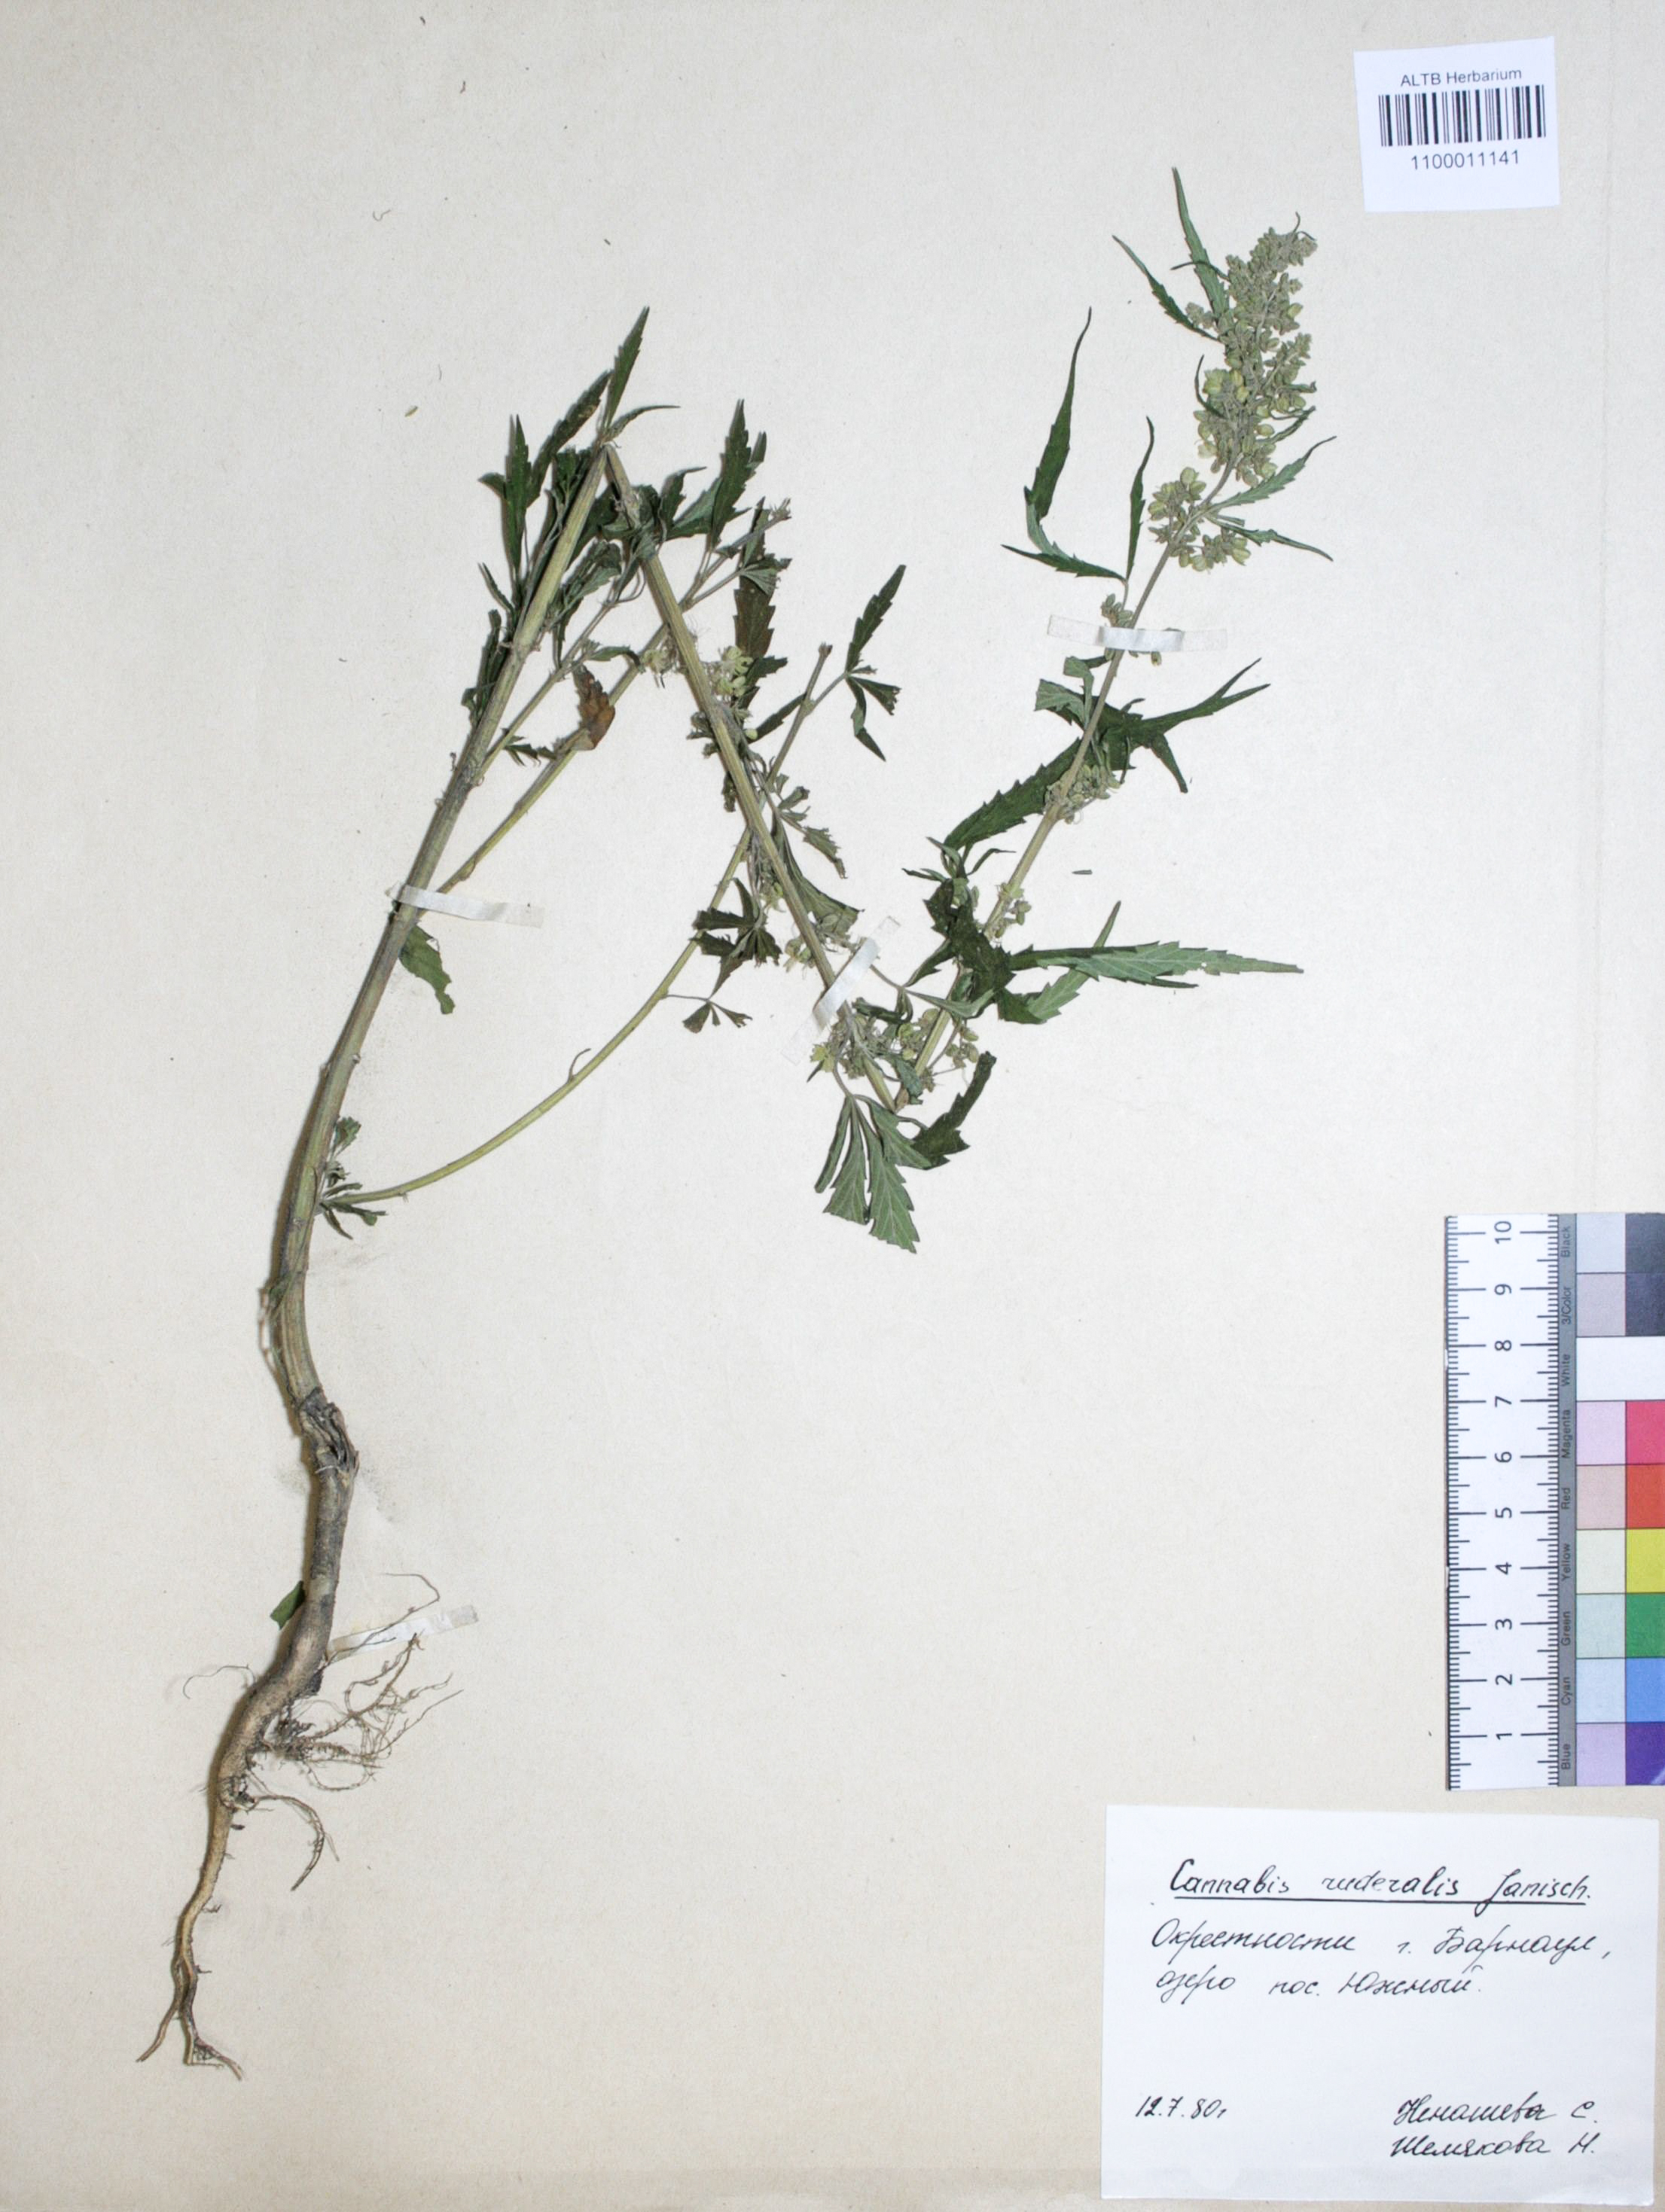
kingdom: Plantae
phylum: Tracheophyta
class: Magnoliopsida
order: Rosales
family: Cannabaceae
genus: Cannabis
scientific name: Cannabis sativa
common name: Hemp
